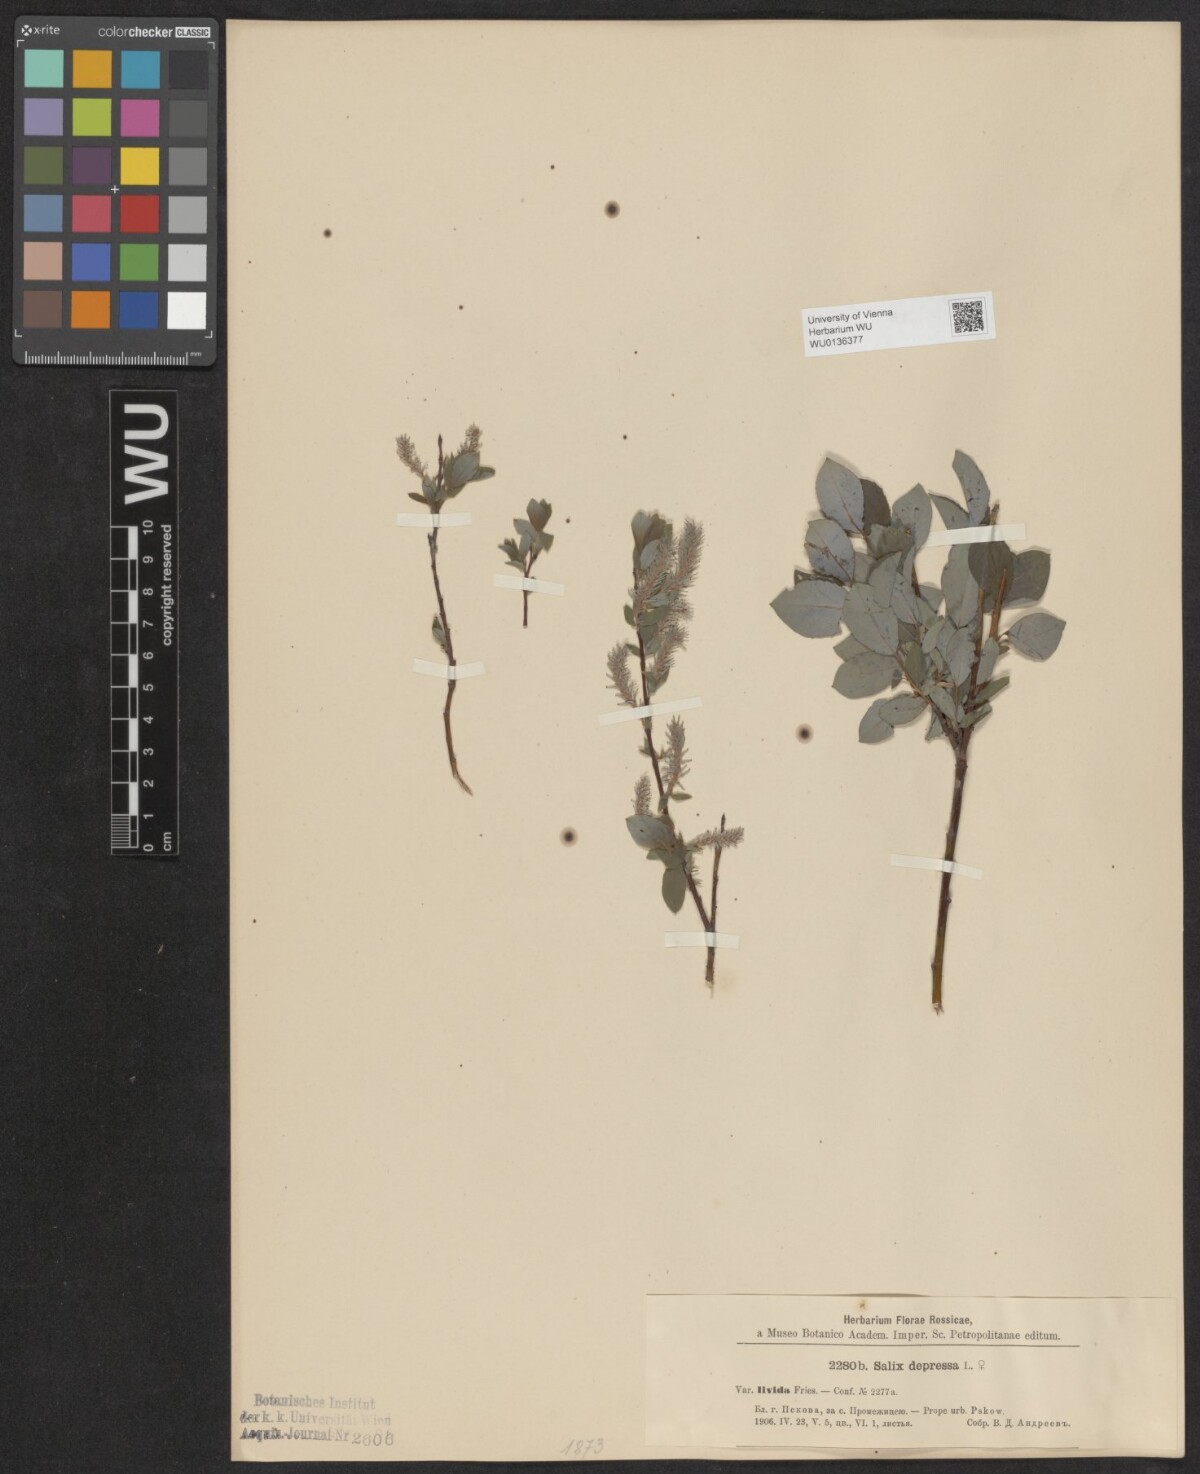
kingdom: Plantae
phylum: Tracheophyta
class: Magnoliopsida
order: Malpighiales
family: Salicaceae
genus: Salix
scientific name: Salix lanata
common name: Woolly willow
